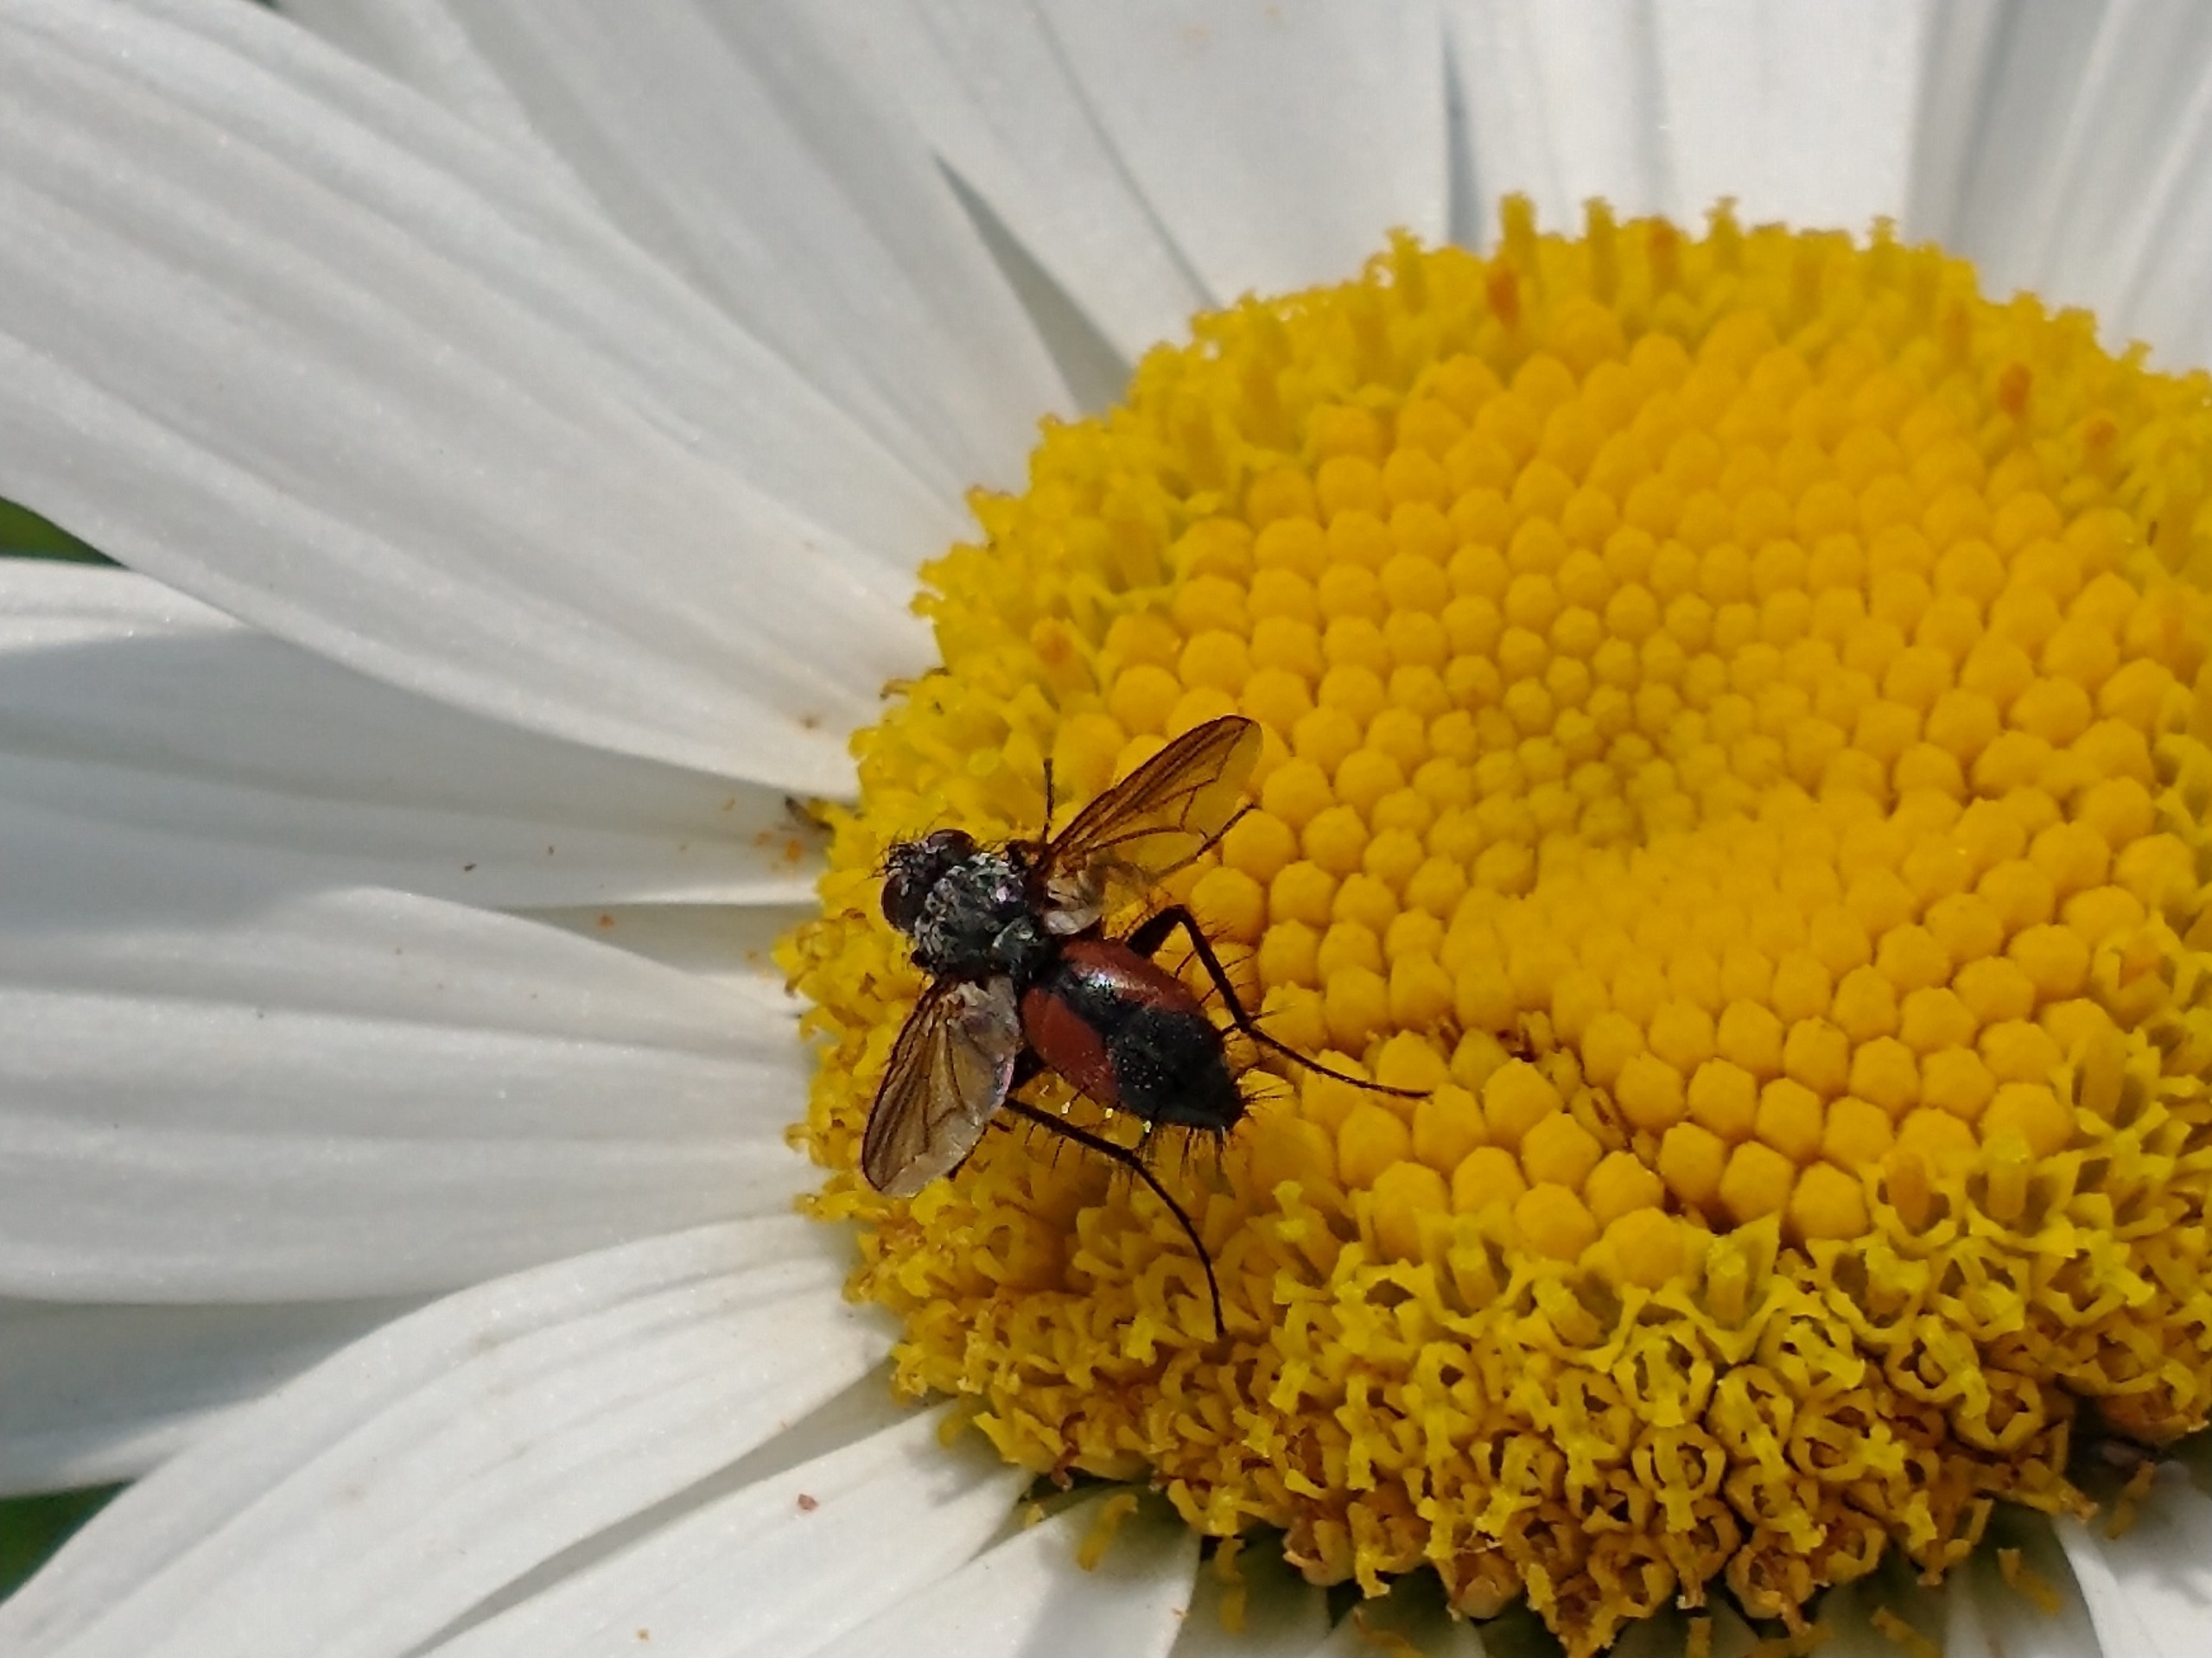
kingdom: Animalia
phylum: Arthropoda
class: Insecta
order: Diptera
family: Tachinidae
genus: Eriothrix
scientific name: Eriothrix rufomaculatus
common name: Rød snylteflue
